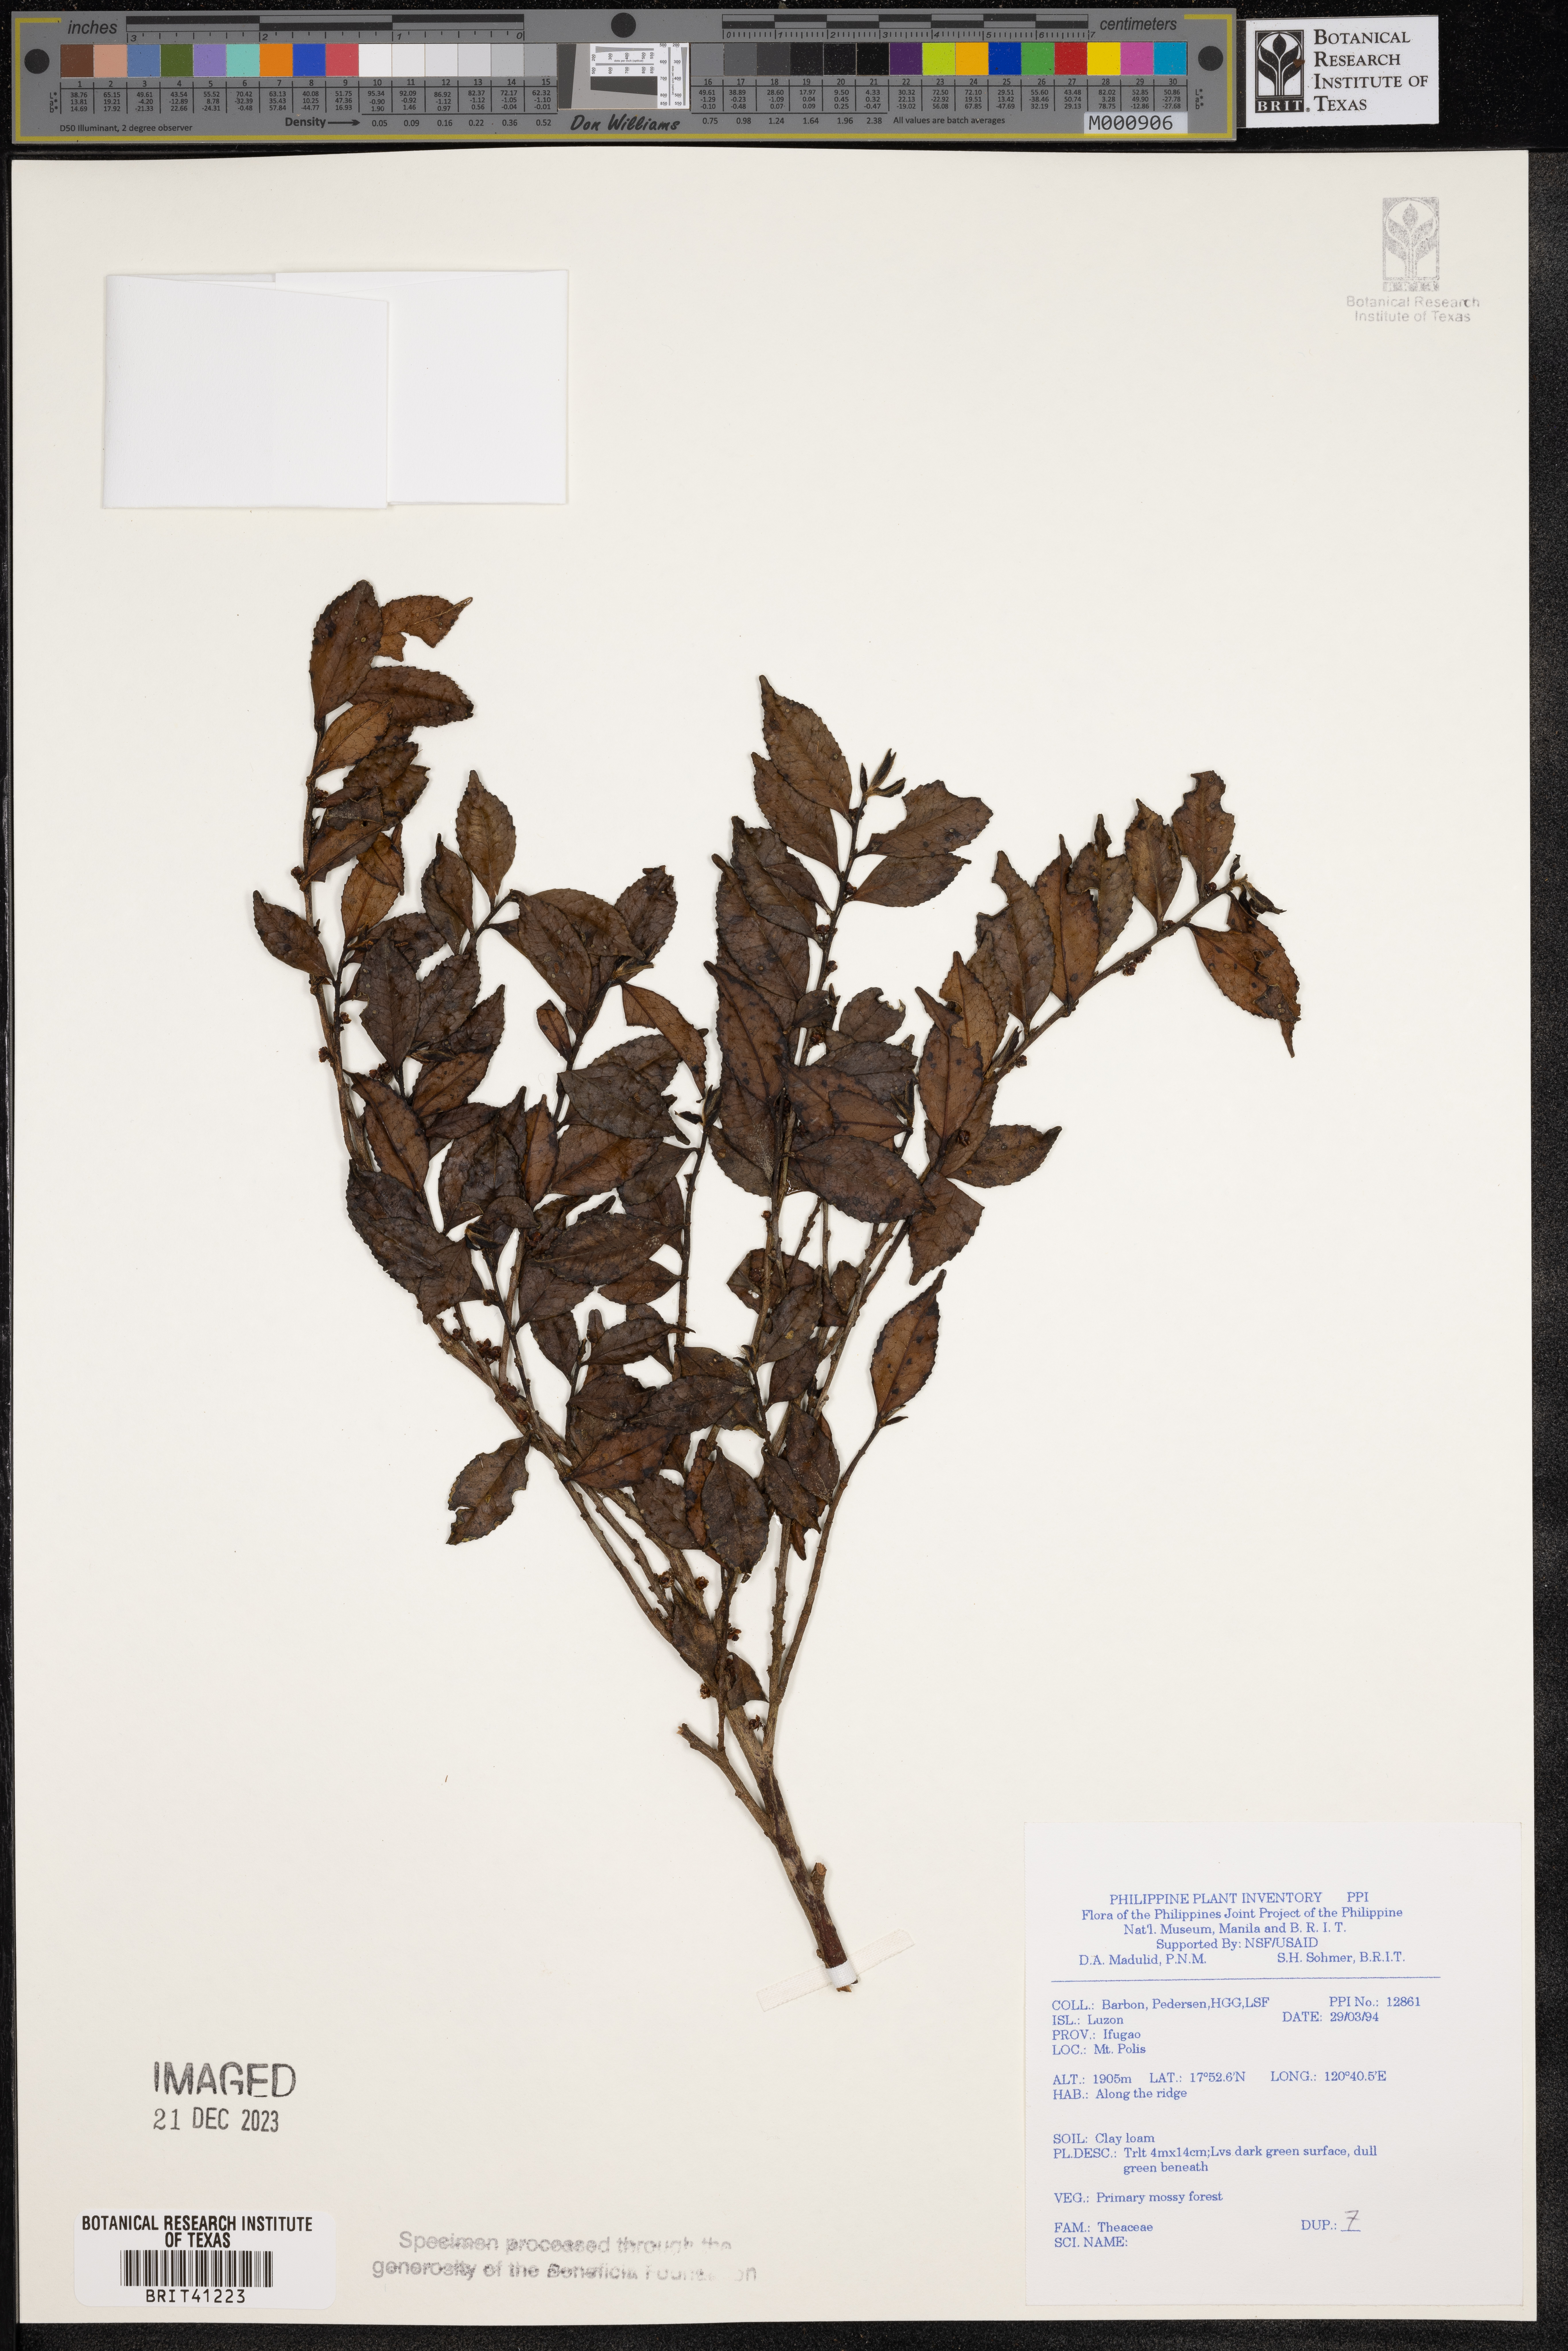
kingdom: Plantae
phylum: Tracheophyta
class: Magnoliopsida
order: Ericales
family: Theaceae
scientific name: Theaceae
